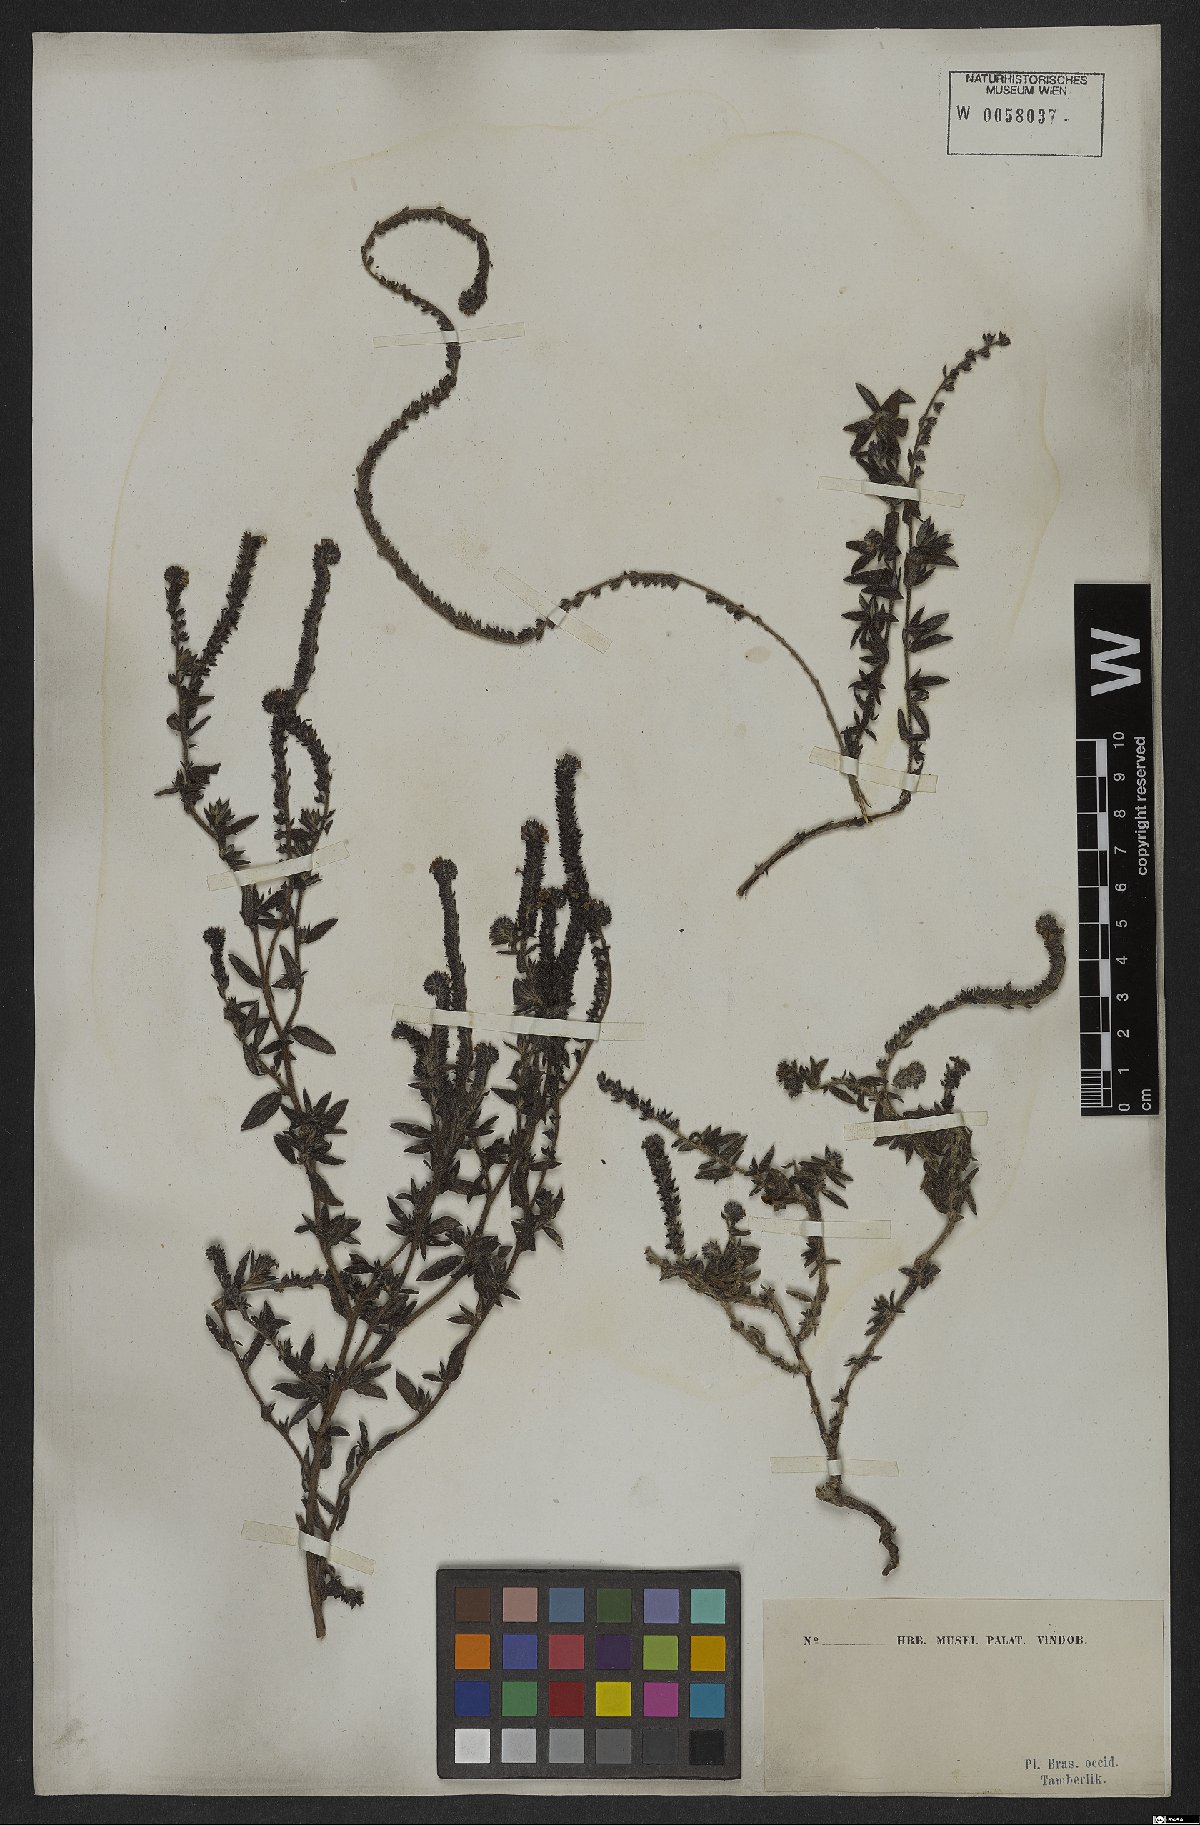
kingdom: Plantae
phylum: Tracheophyta
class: Magnoliopsida
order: Boraginales
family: Heliotropiaceae
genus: Euploca
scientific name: Euploca salicoides
